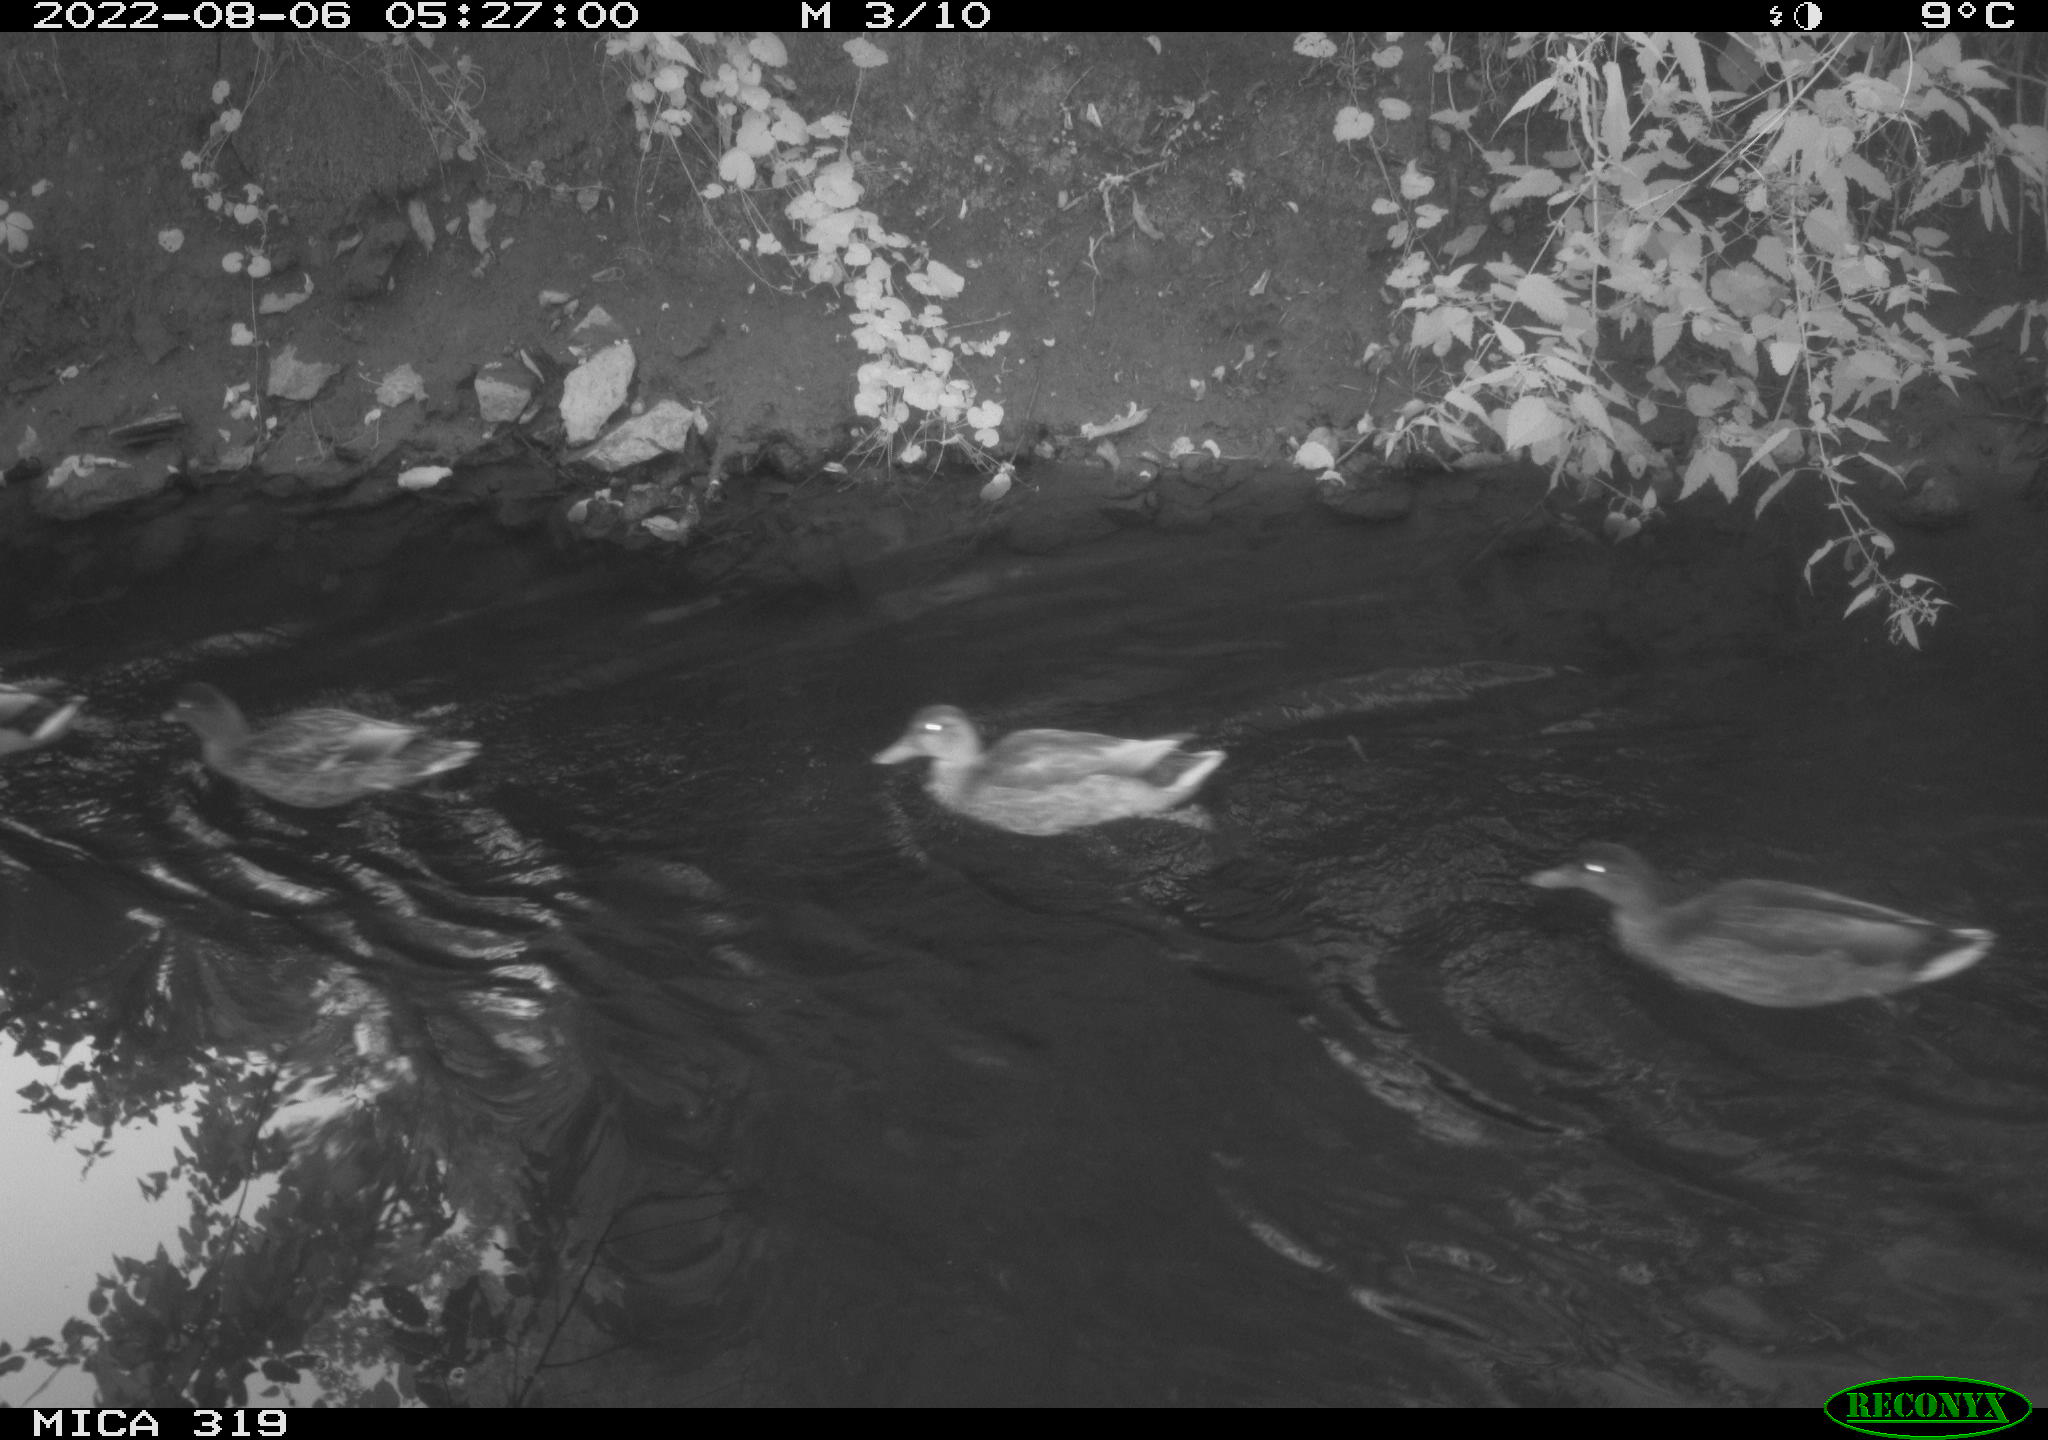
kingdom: Animalia
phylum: Chordata
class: Aves
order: Anseriformes
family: Anatidae
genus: Anas
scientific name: Anas
